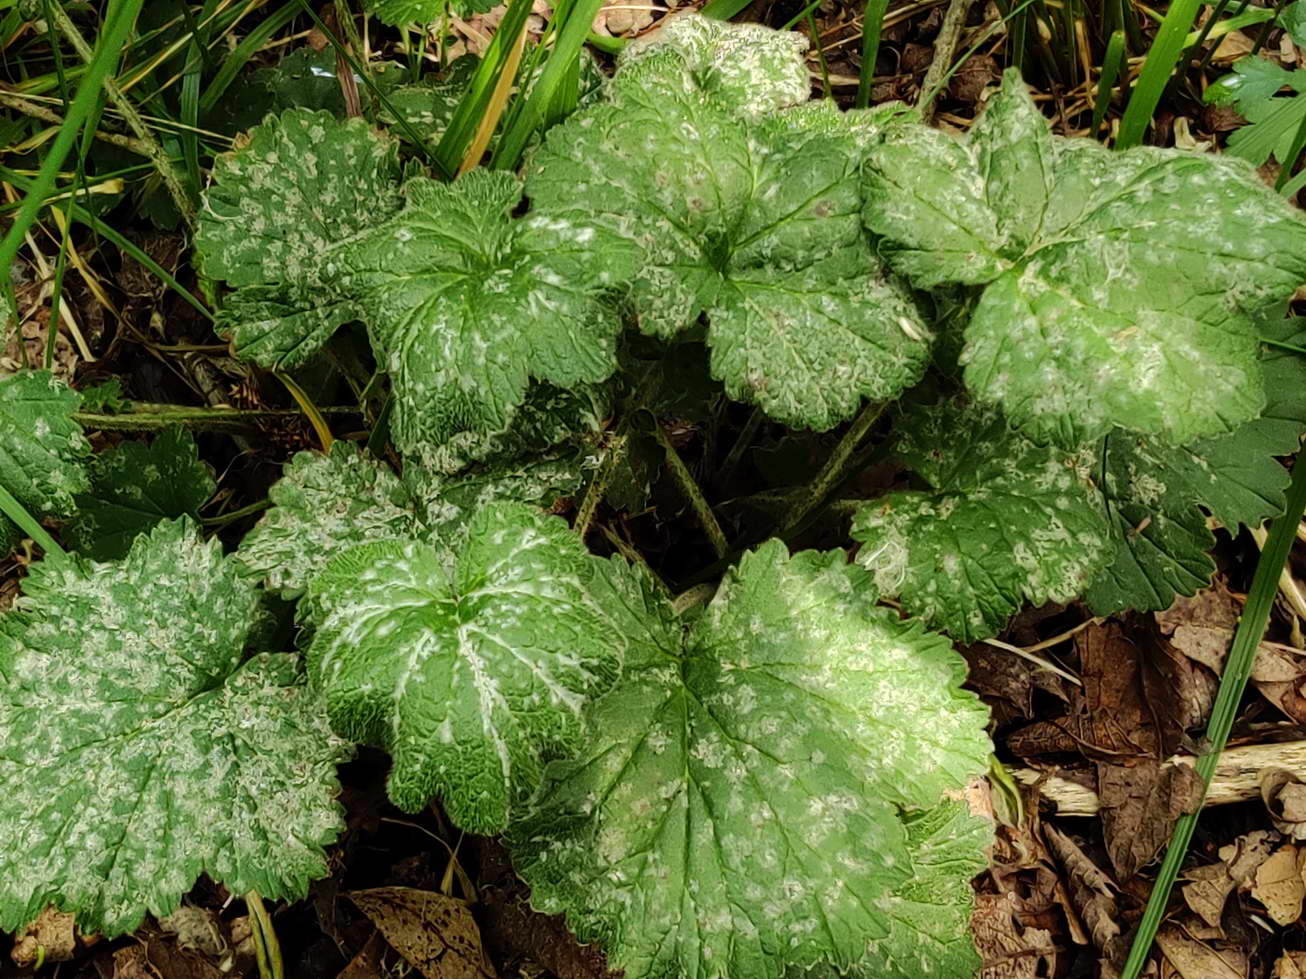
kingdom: Fungi
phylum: Ascomycota
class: Leotiomycetes
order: Helotiales
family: Erysiphaceae
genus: Podosphaera
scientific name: Podosphaera aphanis
